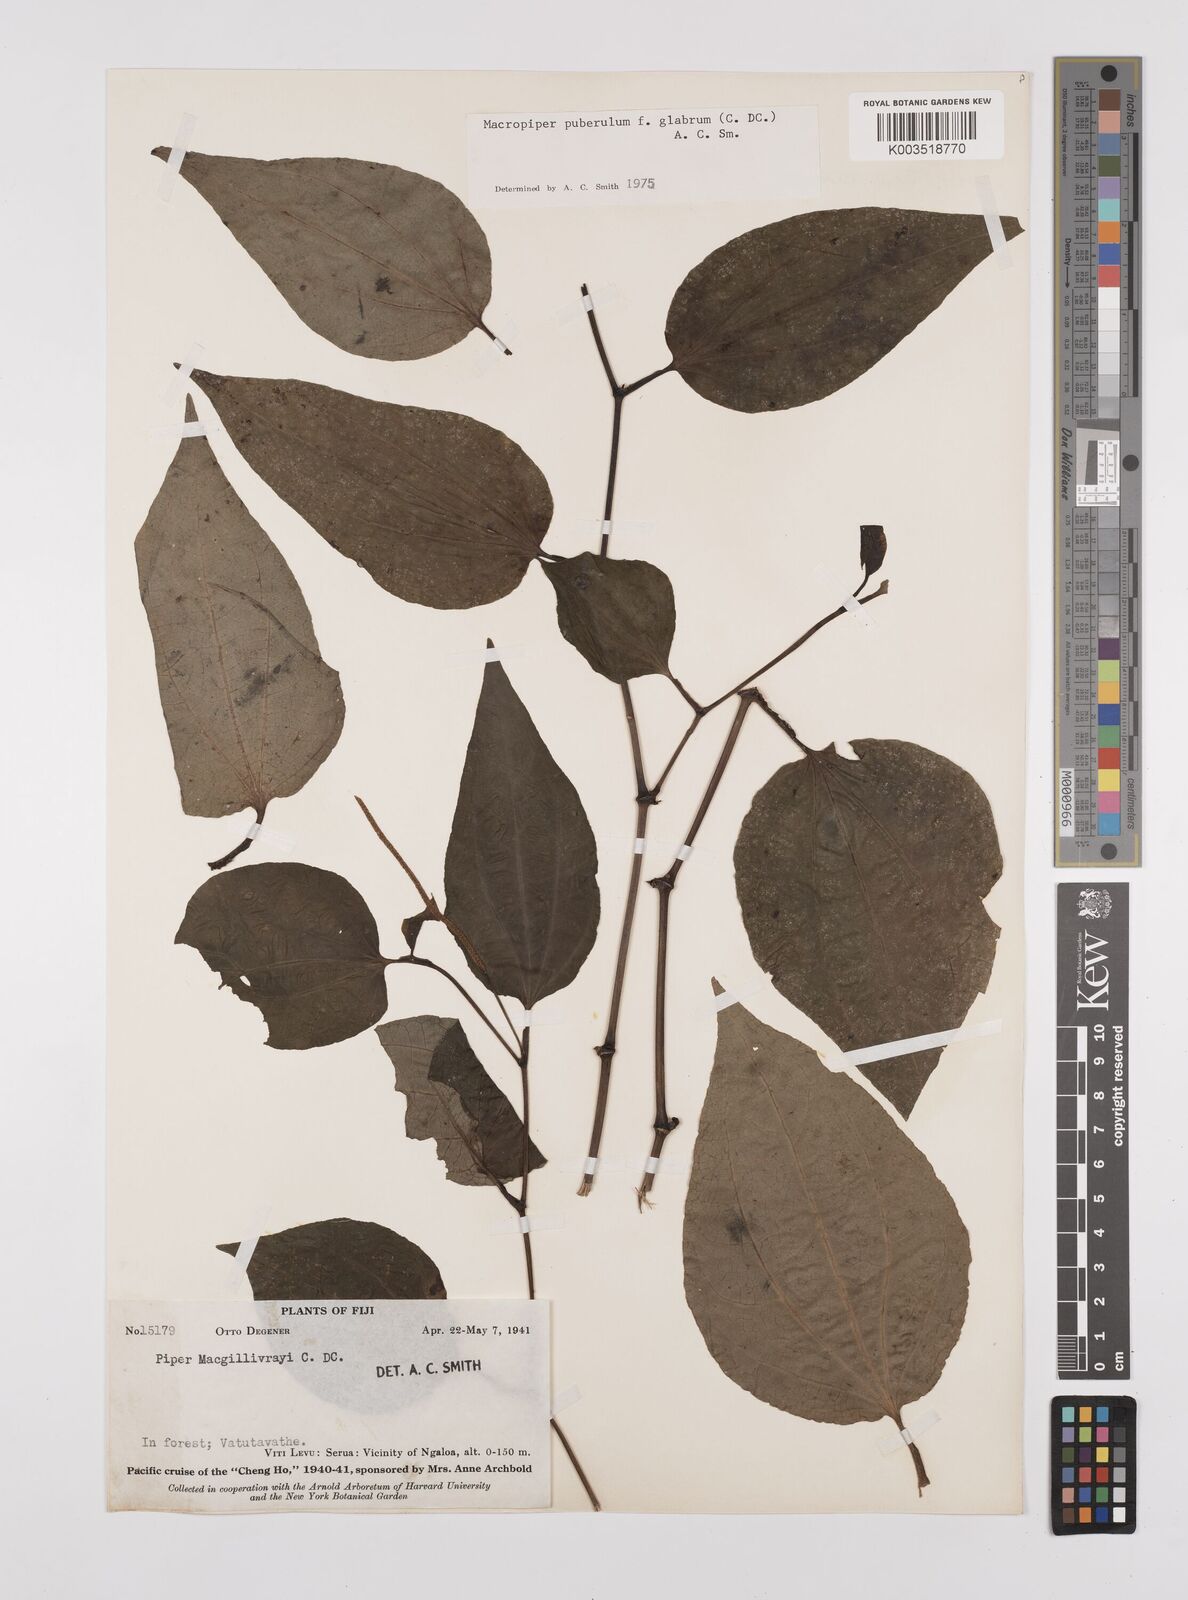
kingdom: Plantae
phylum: Tracheophyta
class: Magnoliopsida
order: Piperales
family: Piperaceae
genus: Macropiper
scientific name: Macropiper puberulum
